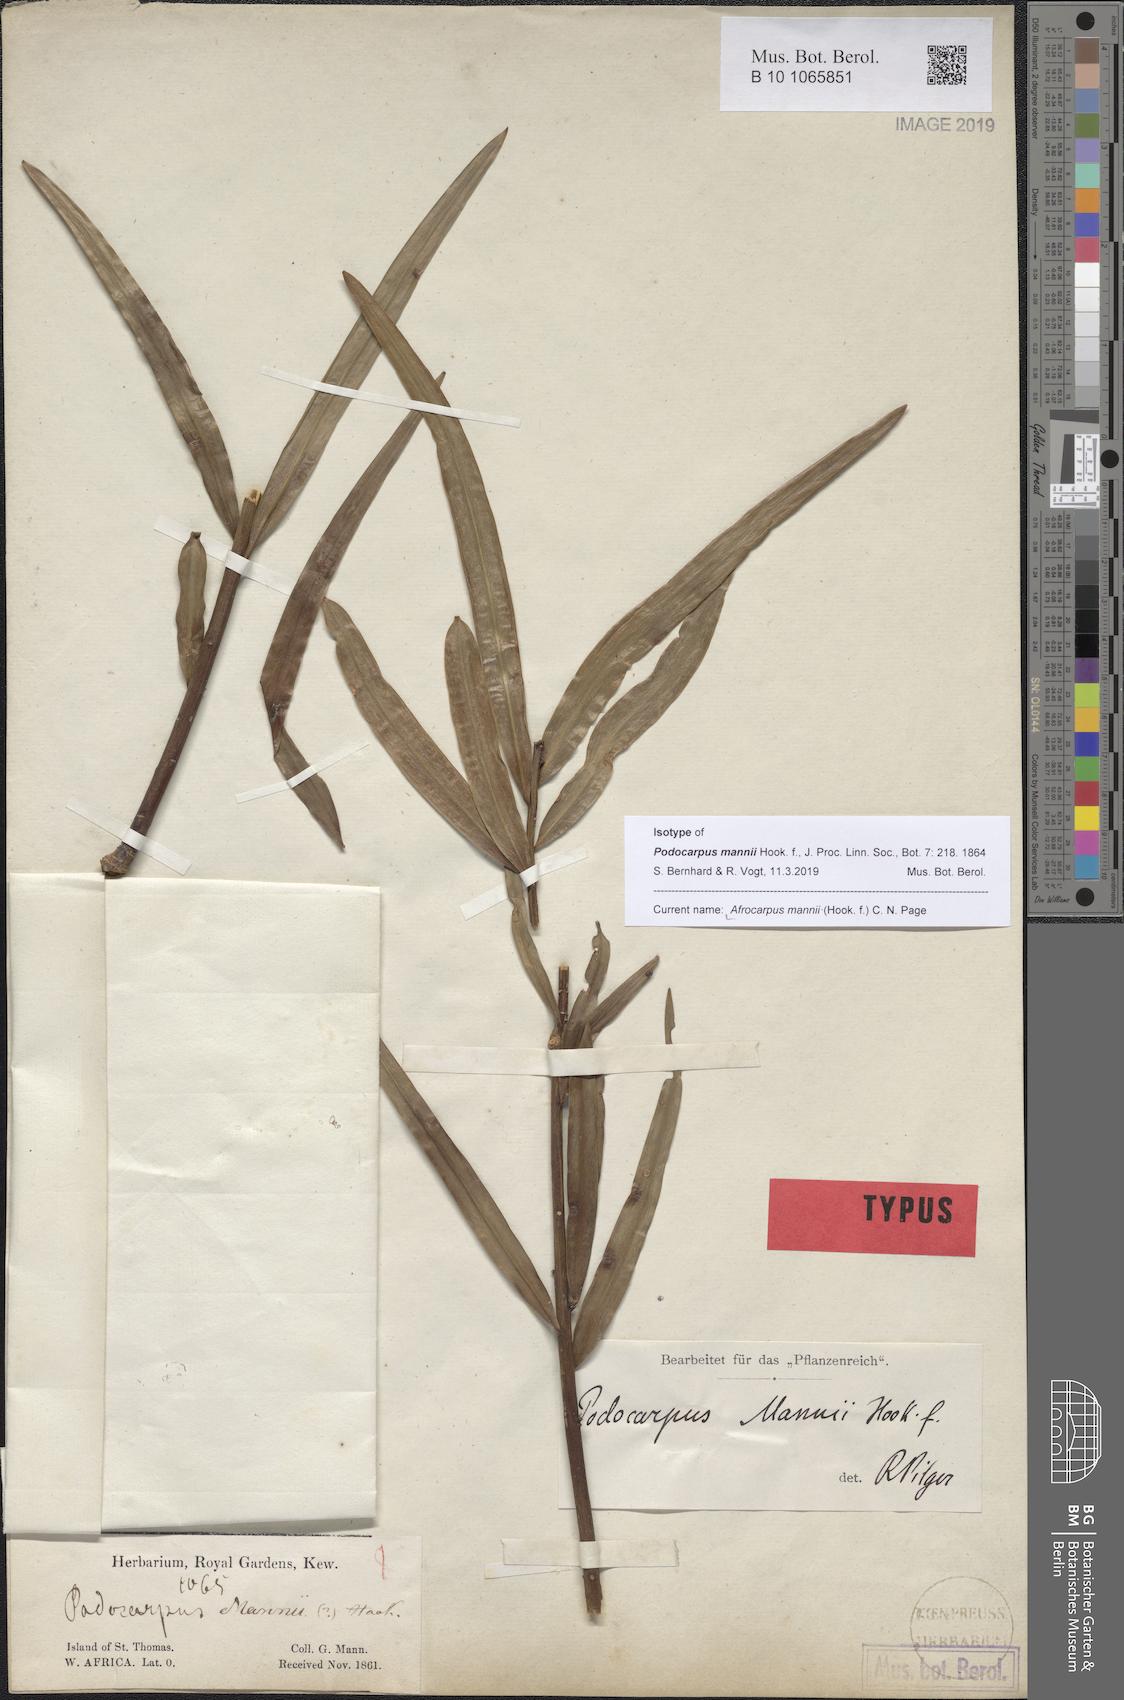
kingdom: Plantae
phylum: Tracheophyta
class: Pinopsida
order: Pinales
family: Podocarpaceae
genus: Afrocarpus
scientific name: Afrocarpus mannii
